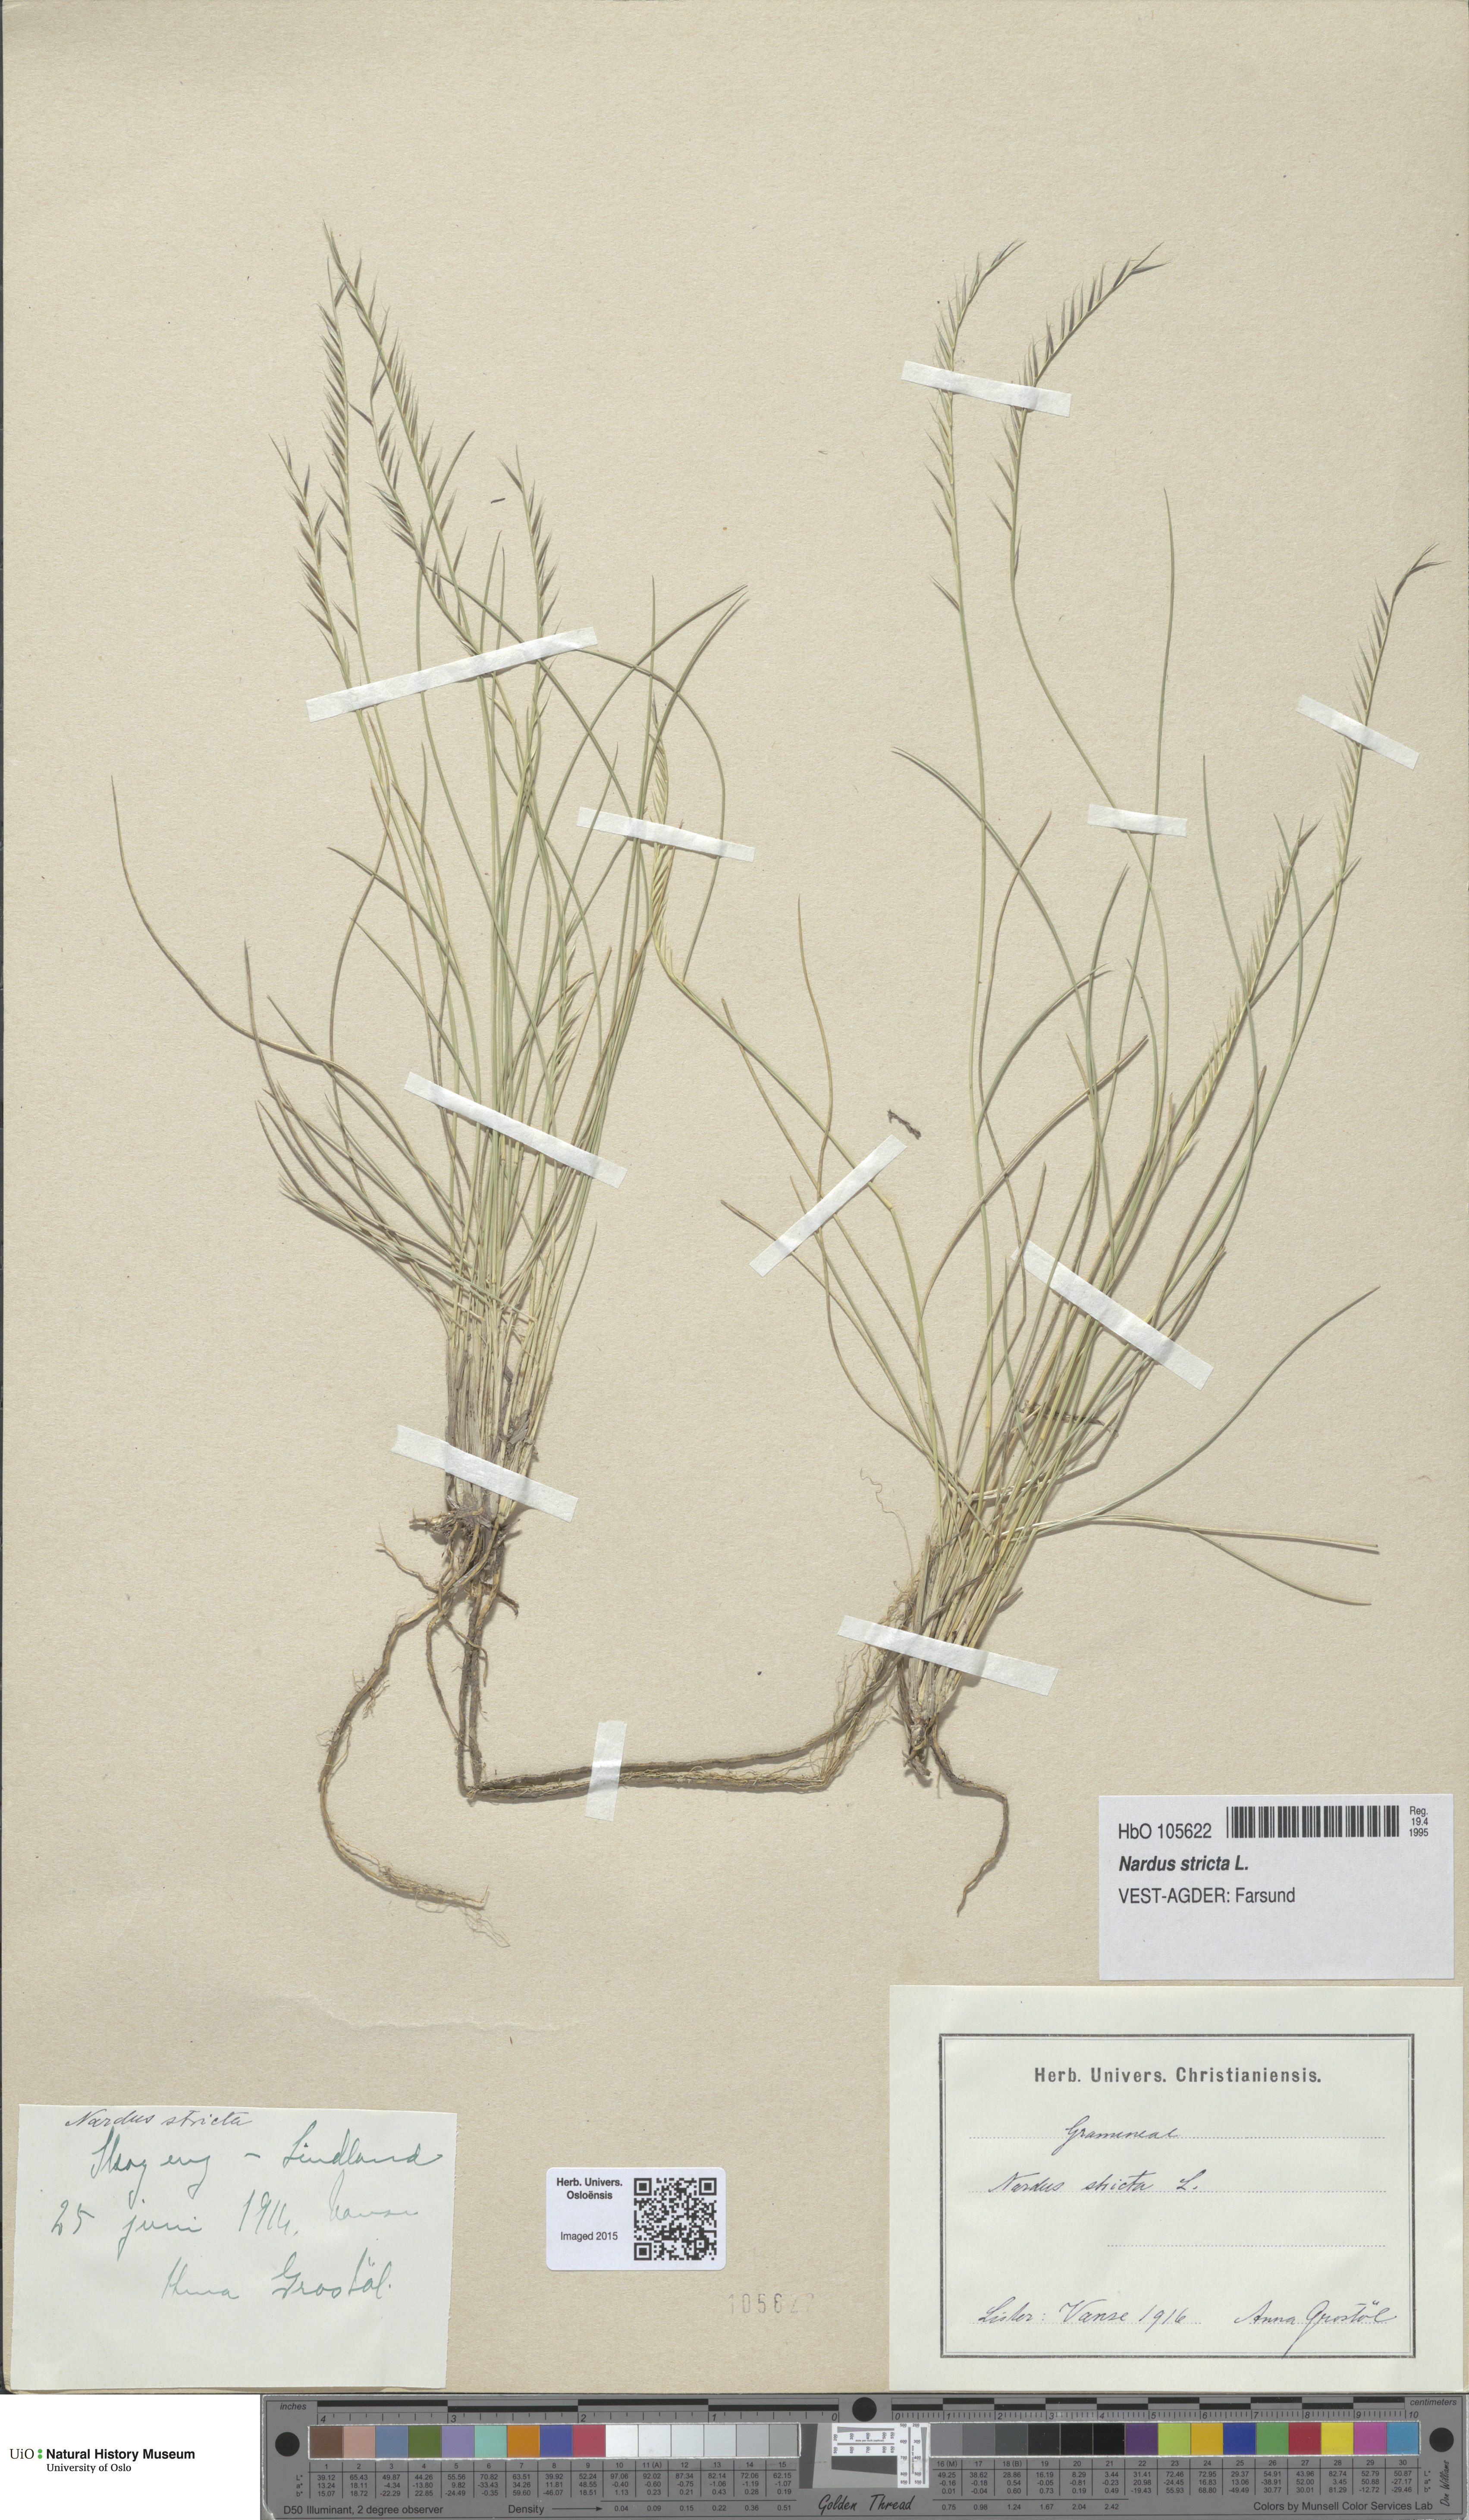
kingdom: Plantae
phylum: Tracheophyta
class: Liliopsida
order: Poales
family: Poaceae
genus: Nardus
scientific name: Nardus stricta
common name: Mat-grass
